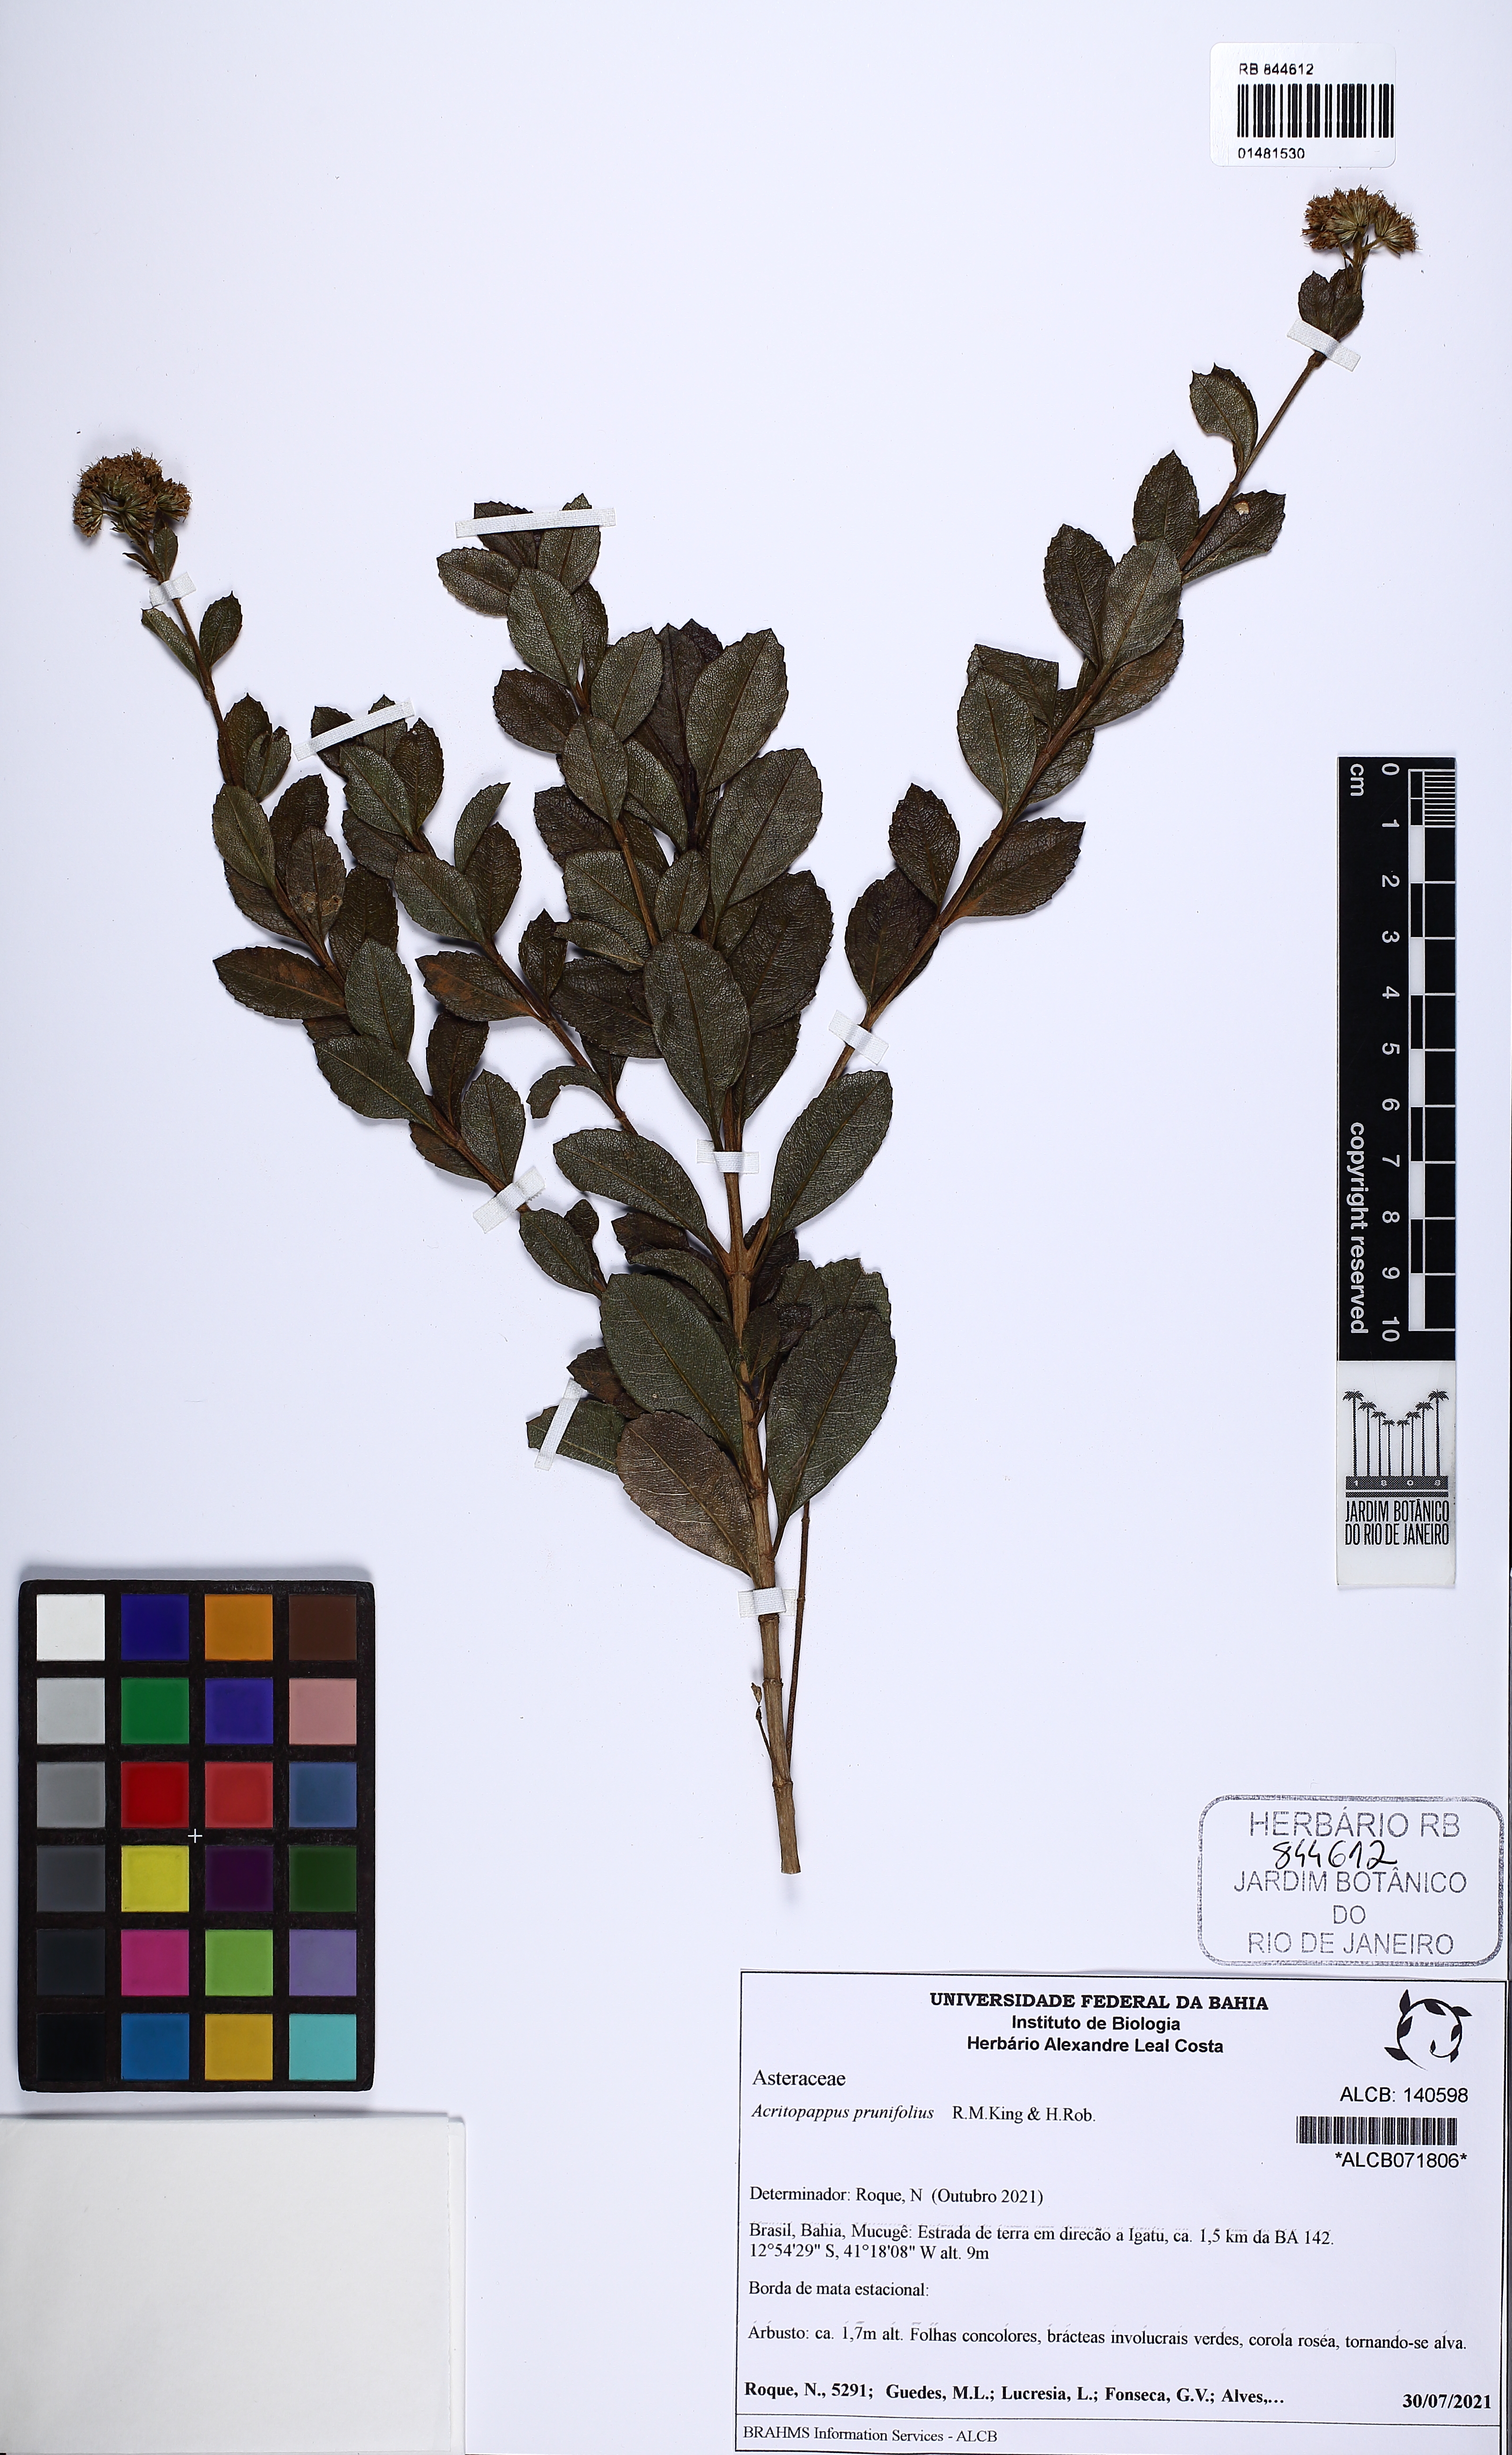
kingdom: Plantae
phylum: Tracheophyta
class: Magnoliopsida
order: Asterales
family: Asteraceae
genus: Acritopappus
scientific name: Acritopappus prunifolius
